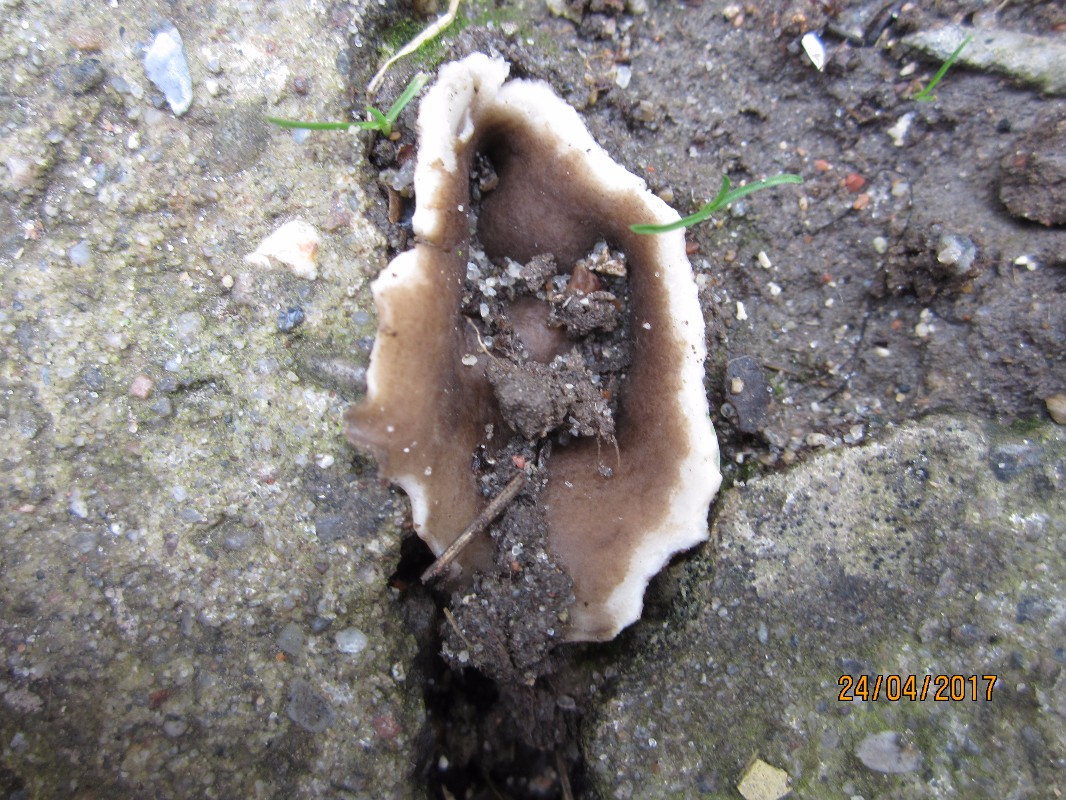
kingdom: Fungi
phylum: Ascomycota
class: Pezizomycetes
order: Pezizales
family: Helvellaceae
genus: Dissingia
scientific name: Dissingia leucomelaena
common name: sorthvid foldhat
